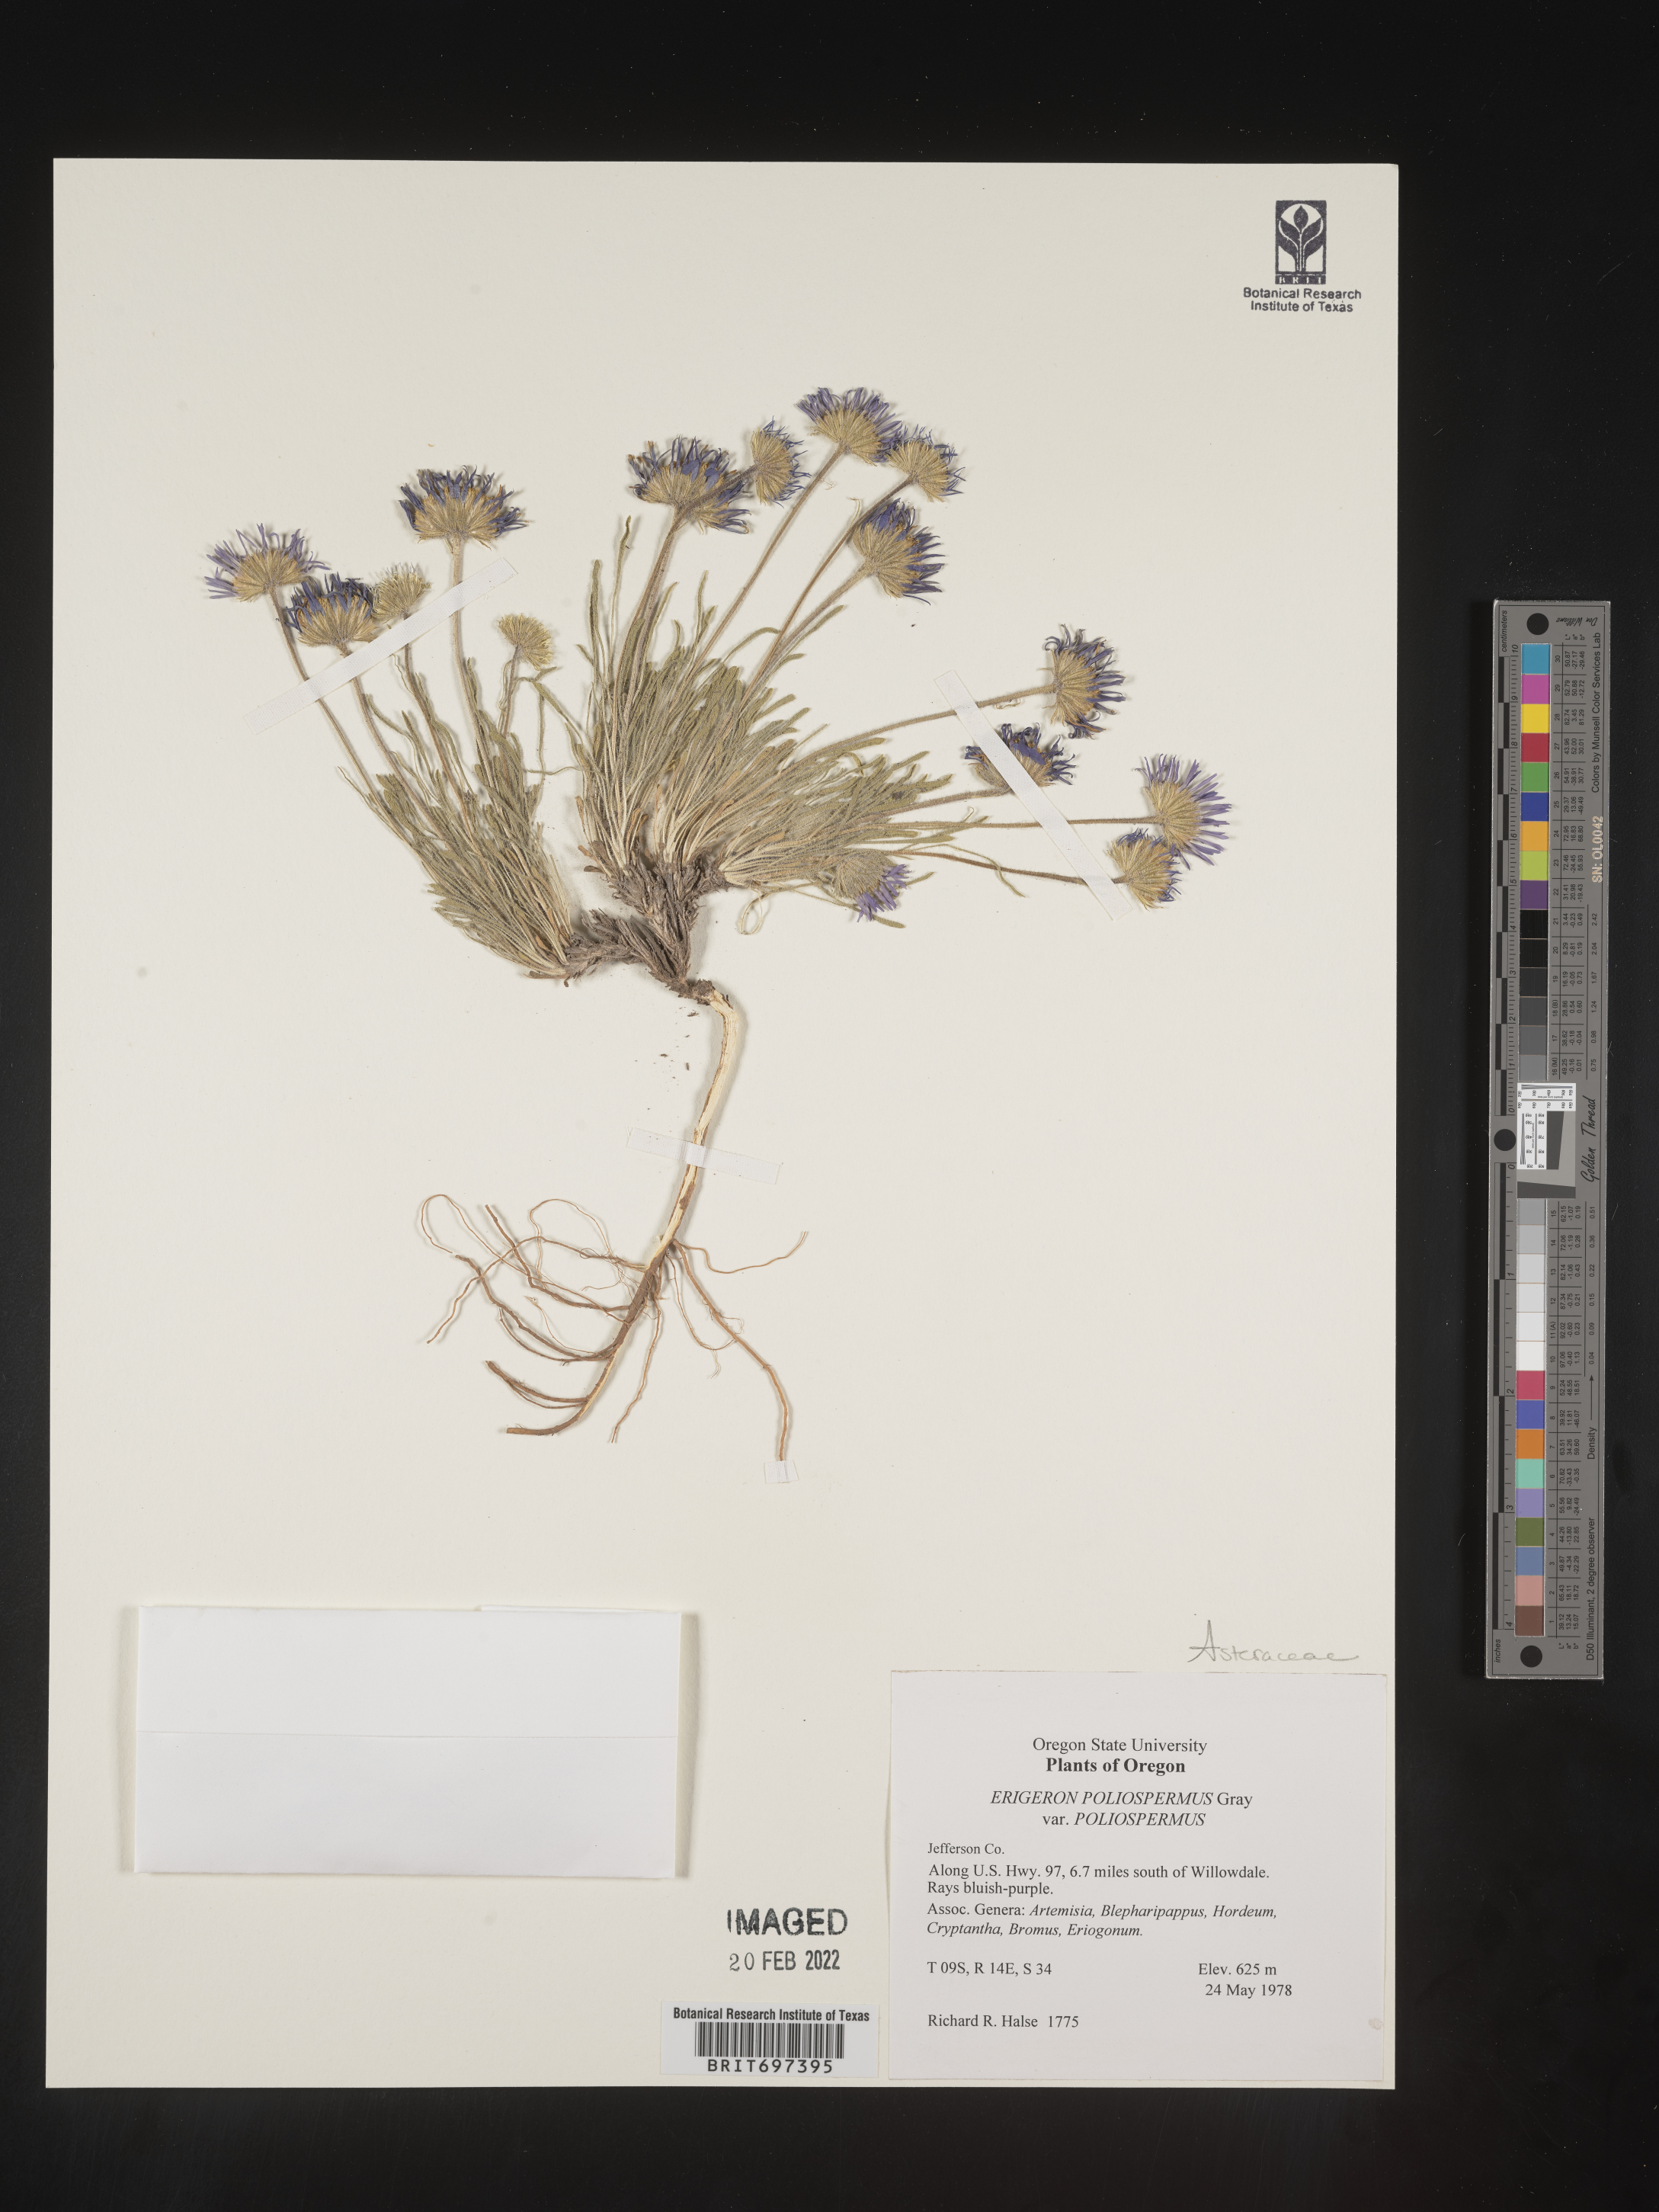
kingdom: Plantae
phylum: Tracheophyta
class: Magnoliopsida
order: Asterales
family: Asteraceae
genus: Erigeron
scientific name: Erigeron poliospermus
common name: Cushion fleabane
